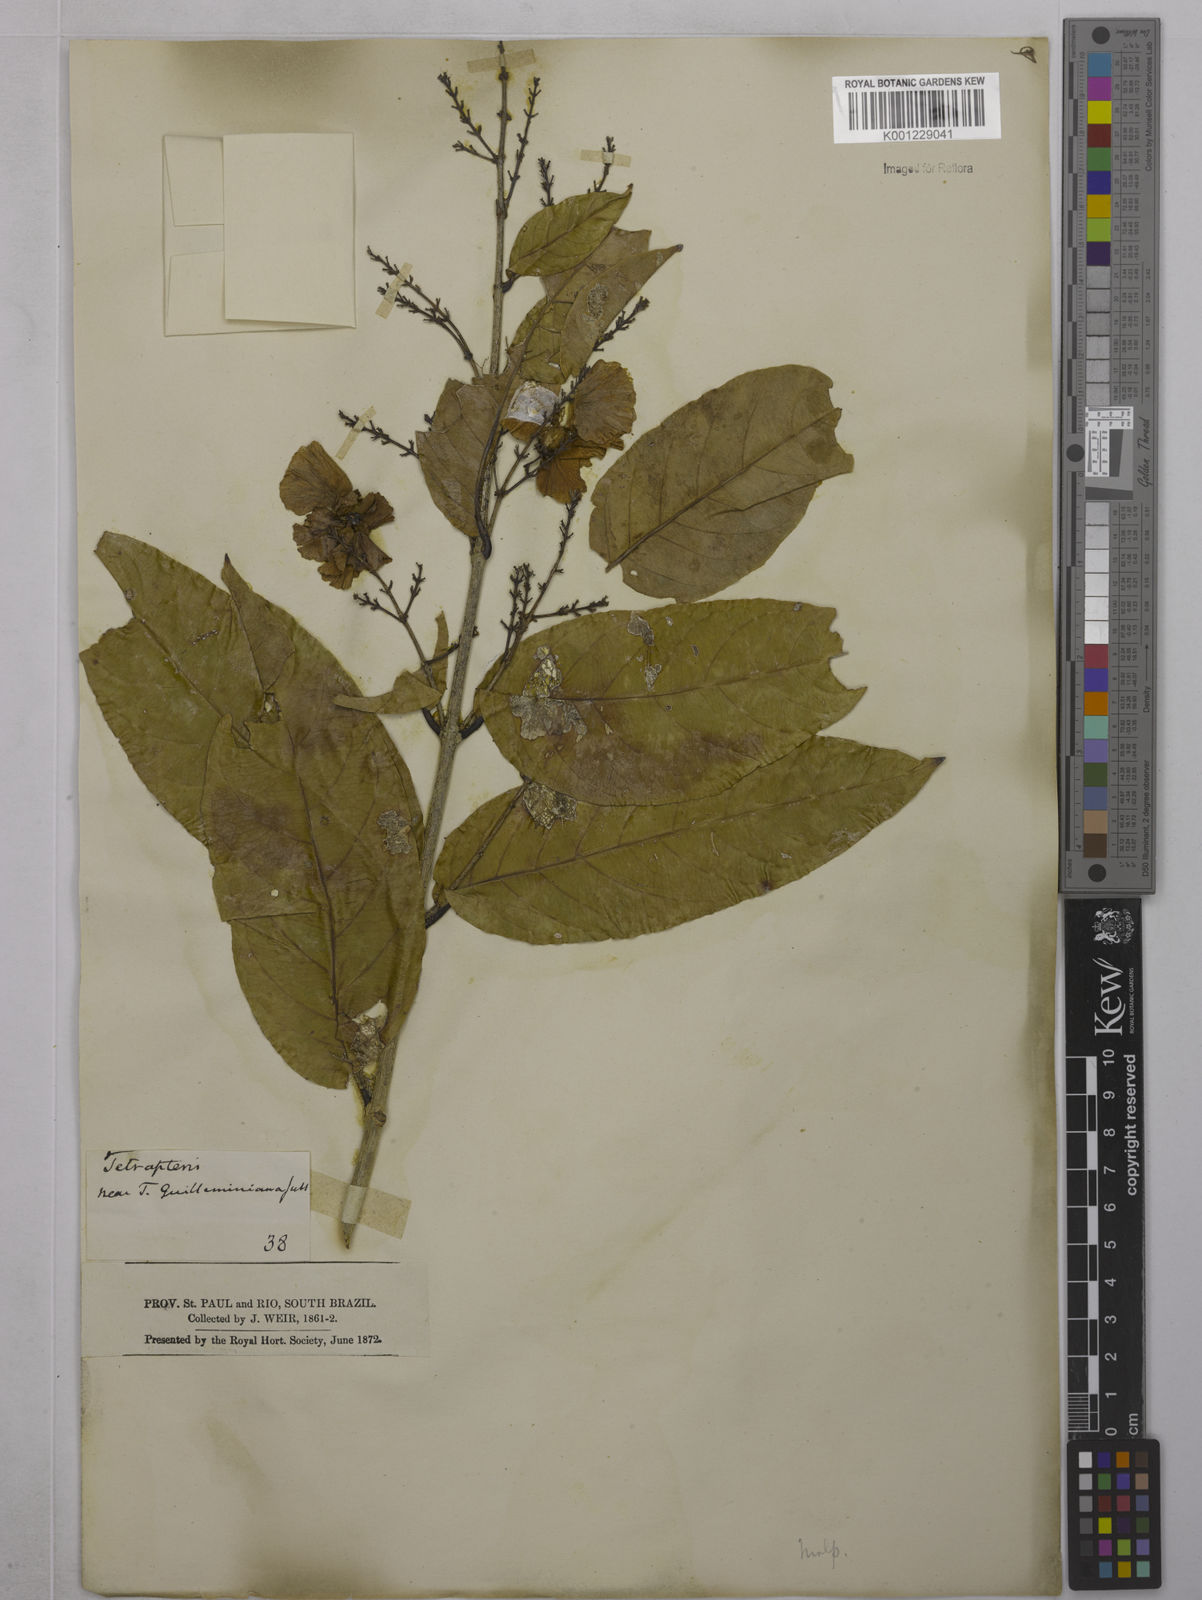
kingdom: Plantae
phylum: Tracheophyta
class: Magnoliopsida
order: Malpighiales
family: Malpighiaceae
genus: Niedenzuella
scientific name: Niedenzuella acutifolia
